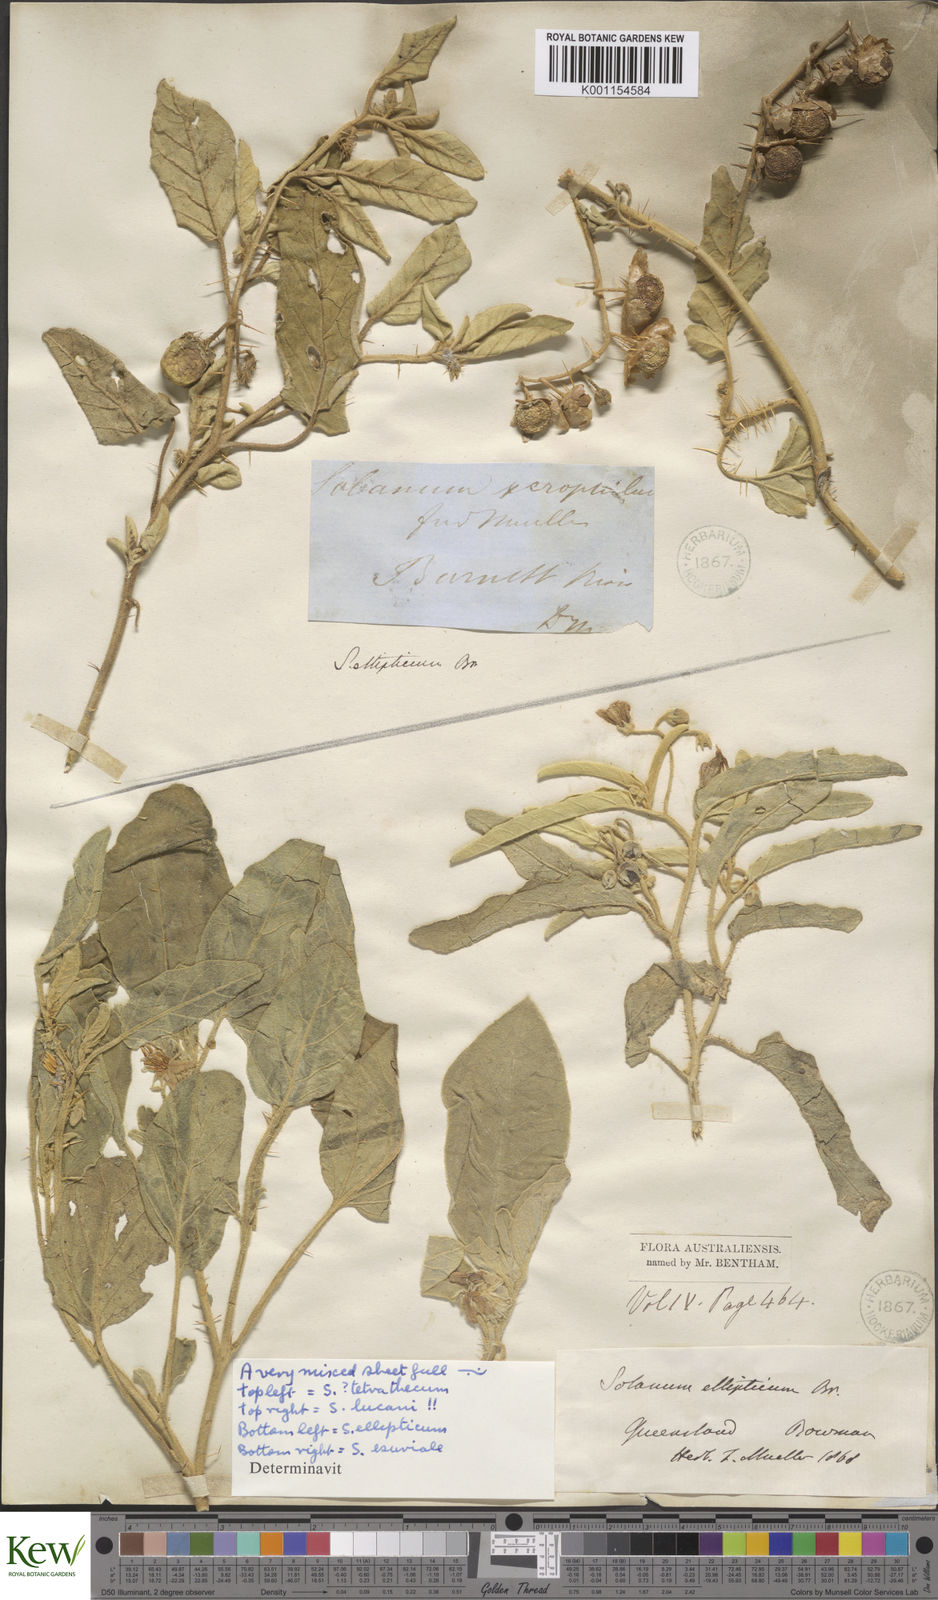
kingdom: Plantae
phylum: Tracheophyta
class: Magnoliopsida
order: Solanales
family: Solanaceae
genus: Solanum
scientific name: Solanum ellipticum
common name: Potato-bush
